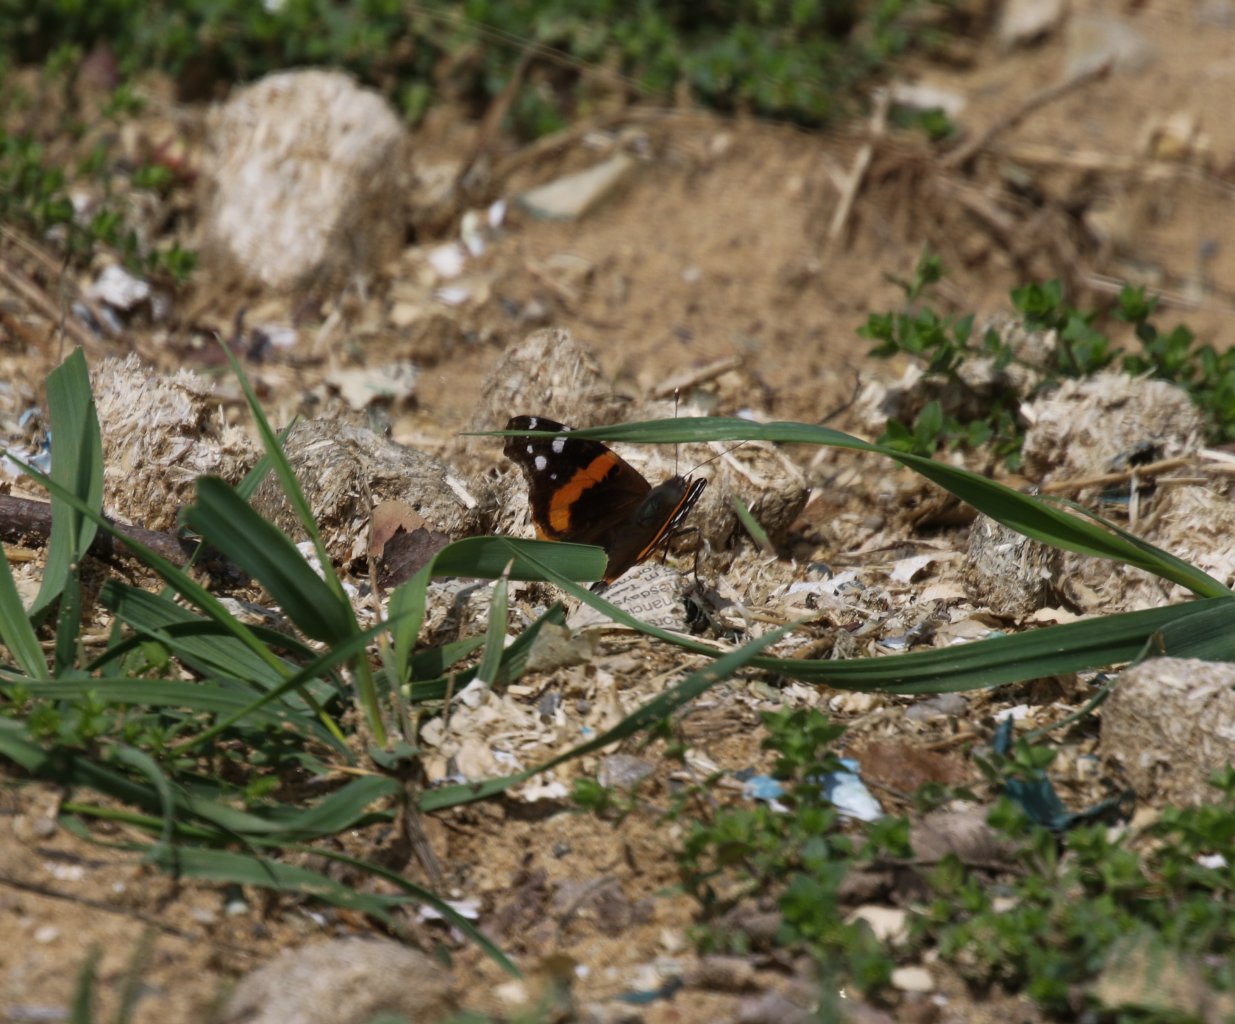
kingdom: Animalia
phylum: Arthropoda
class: Insecta
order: Lepidoptera
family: Nymphalidae
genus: Vanessa
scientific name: Vanessa atalanta
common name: Red Admiral
